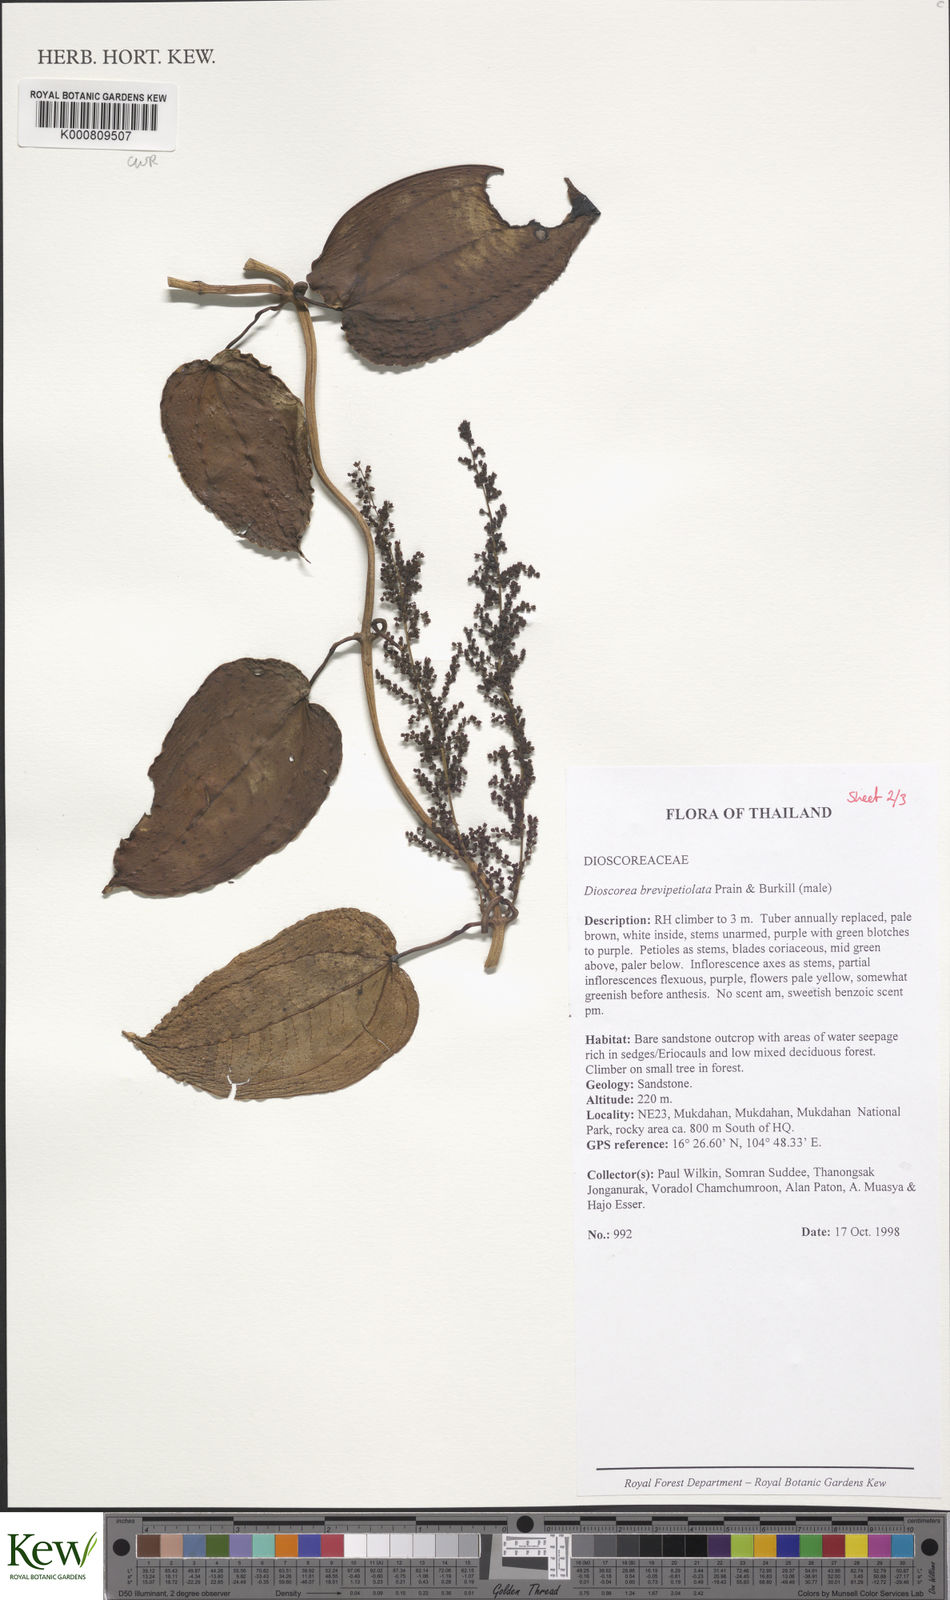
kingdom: Plantae
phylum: Tracheophyta
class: Liliopsida
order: Dioscoreales
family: Dioscoreaceae
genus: Dioscorea
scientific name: Dioscorea brevipetiolata
